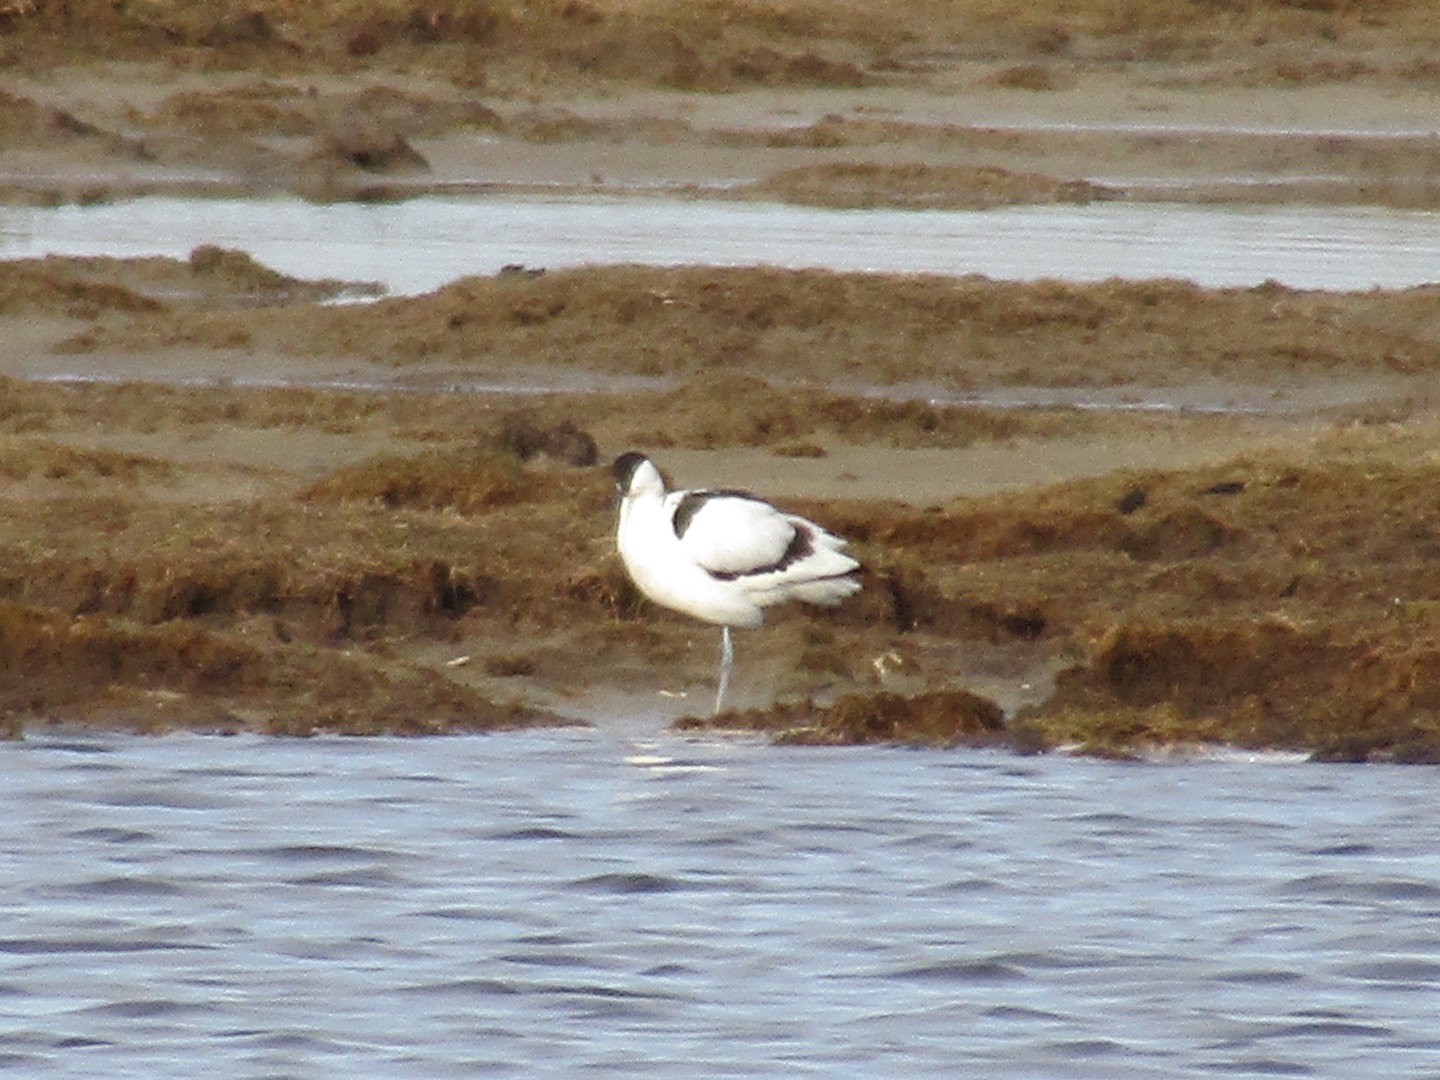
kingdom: Animalia
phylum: Chordata
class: Aves
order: Charadriiformes
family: Recurvirostridae
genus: Recurvirostra
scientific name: Recurvirostra avosetta
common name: Klyde
